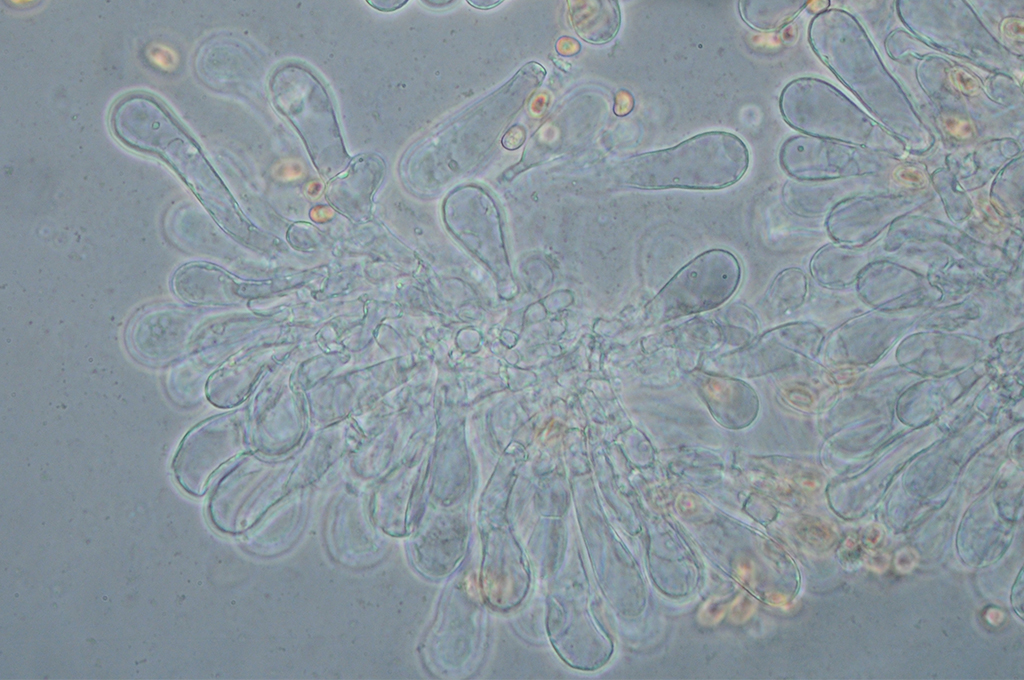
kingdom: Fungi
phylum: Basidiomycota
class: Agaricomycetes
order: Agaricales
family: Inocybaceae
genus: Inosperma
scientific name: Inosperma
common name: strågul trævlhat
